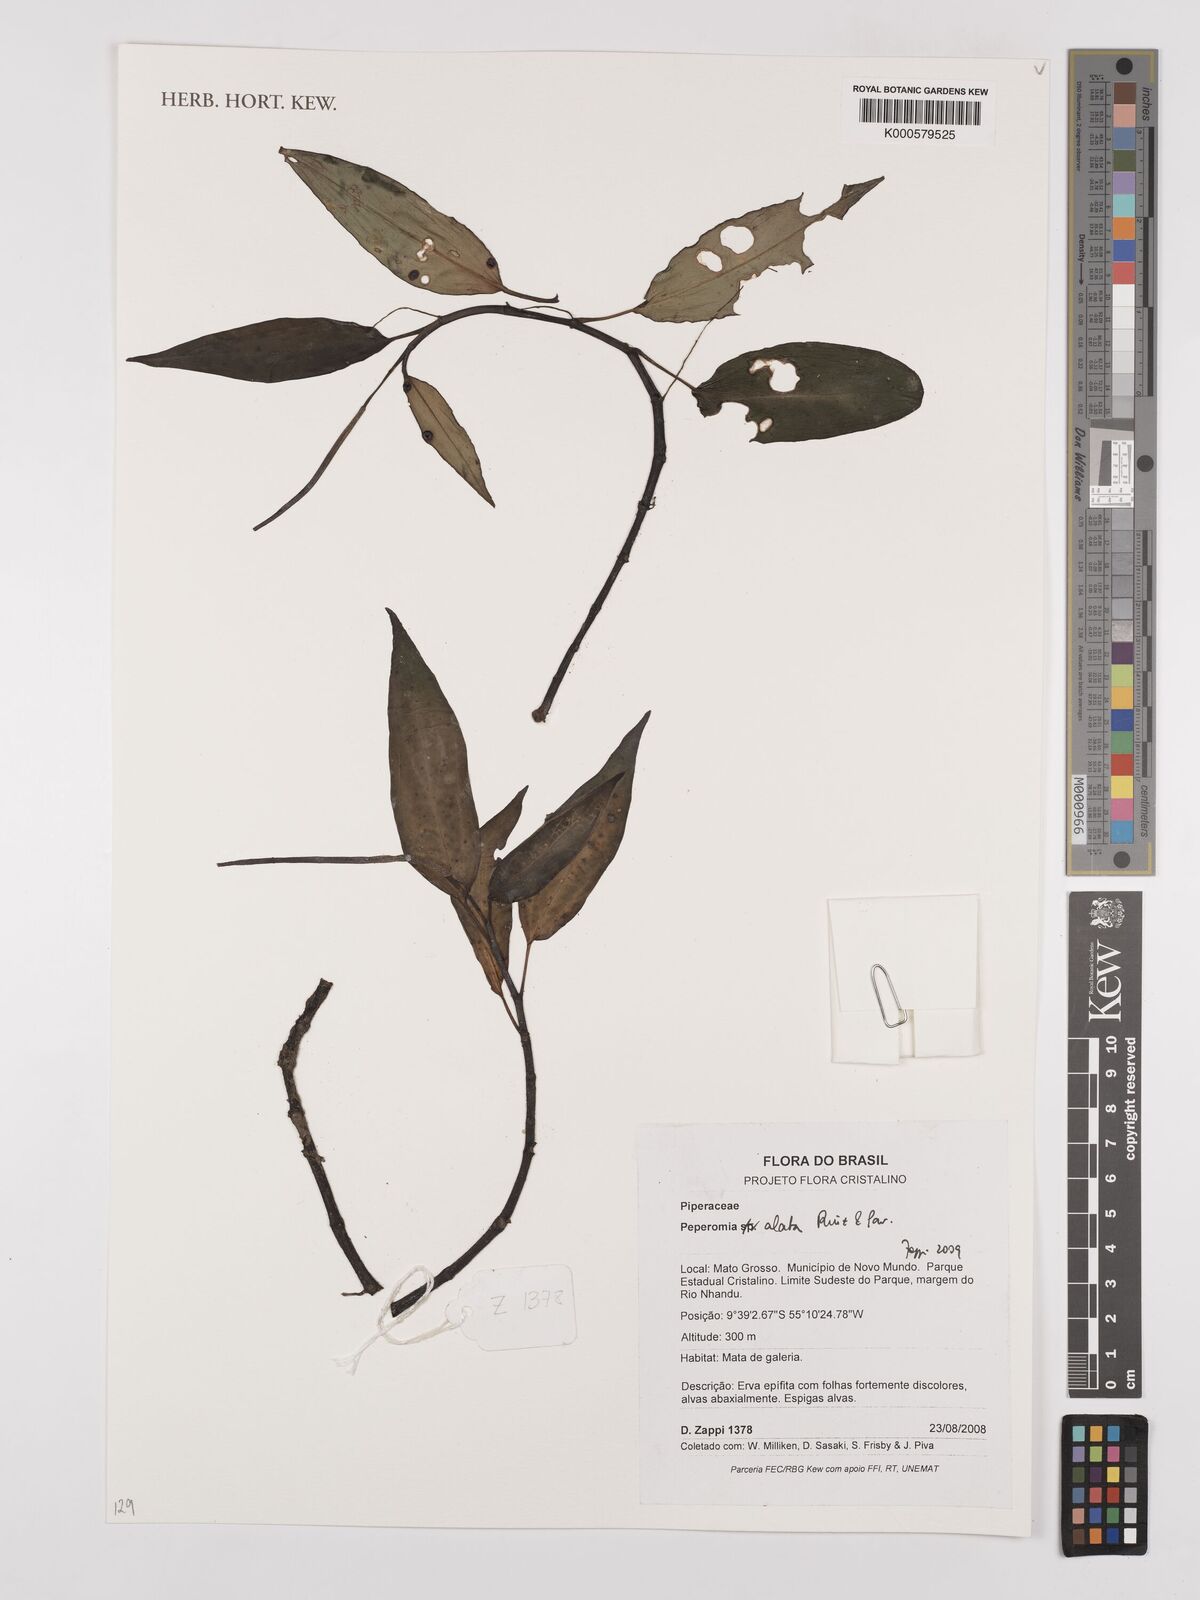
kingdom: Plantae
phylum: Tracheophyta
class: Magnoliopsida
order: Piperales
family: Piperaceae
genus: Peperomia
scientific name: Peperomia alata
